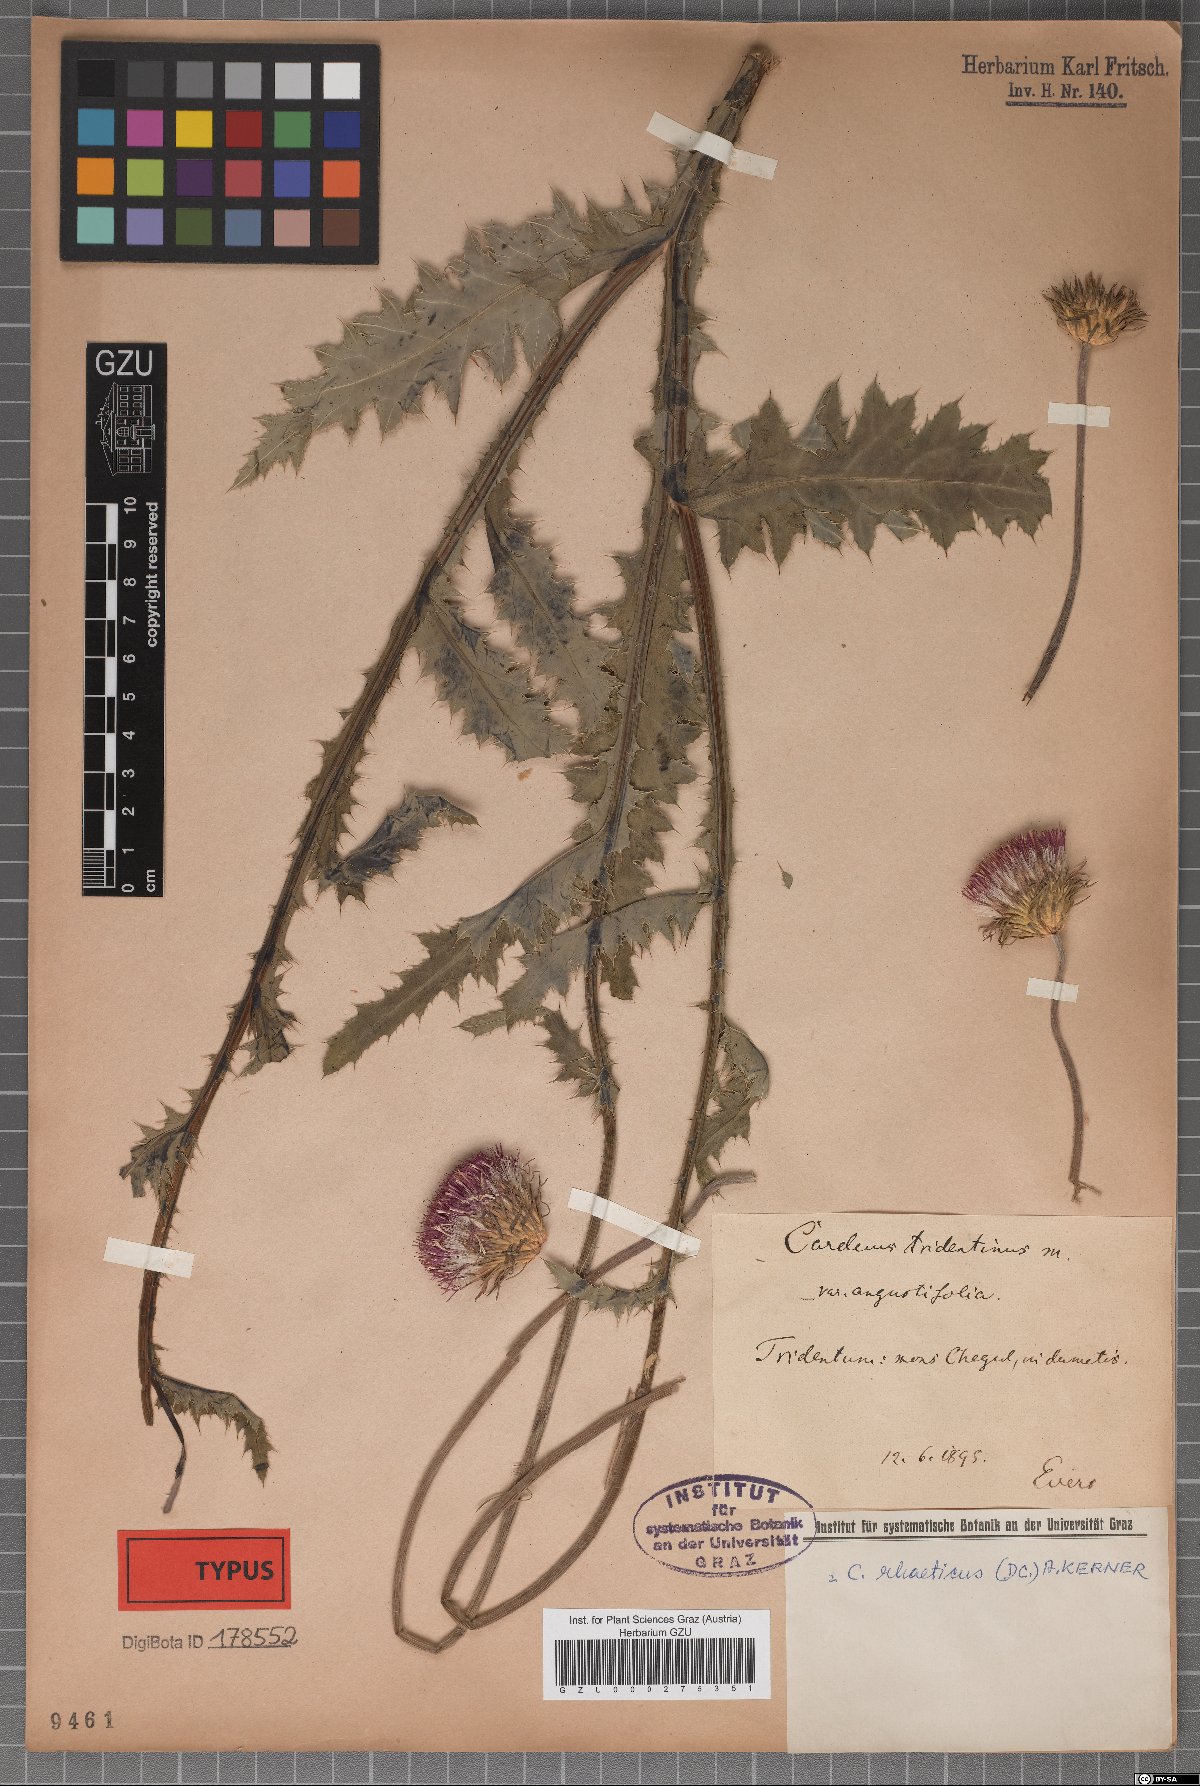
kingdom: Plantae
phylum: Tracheophyta
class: Magnoliopsida
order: Asterales
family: Asteraceae
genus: Carduus
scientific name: Carduus defloratus
